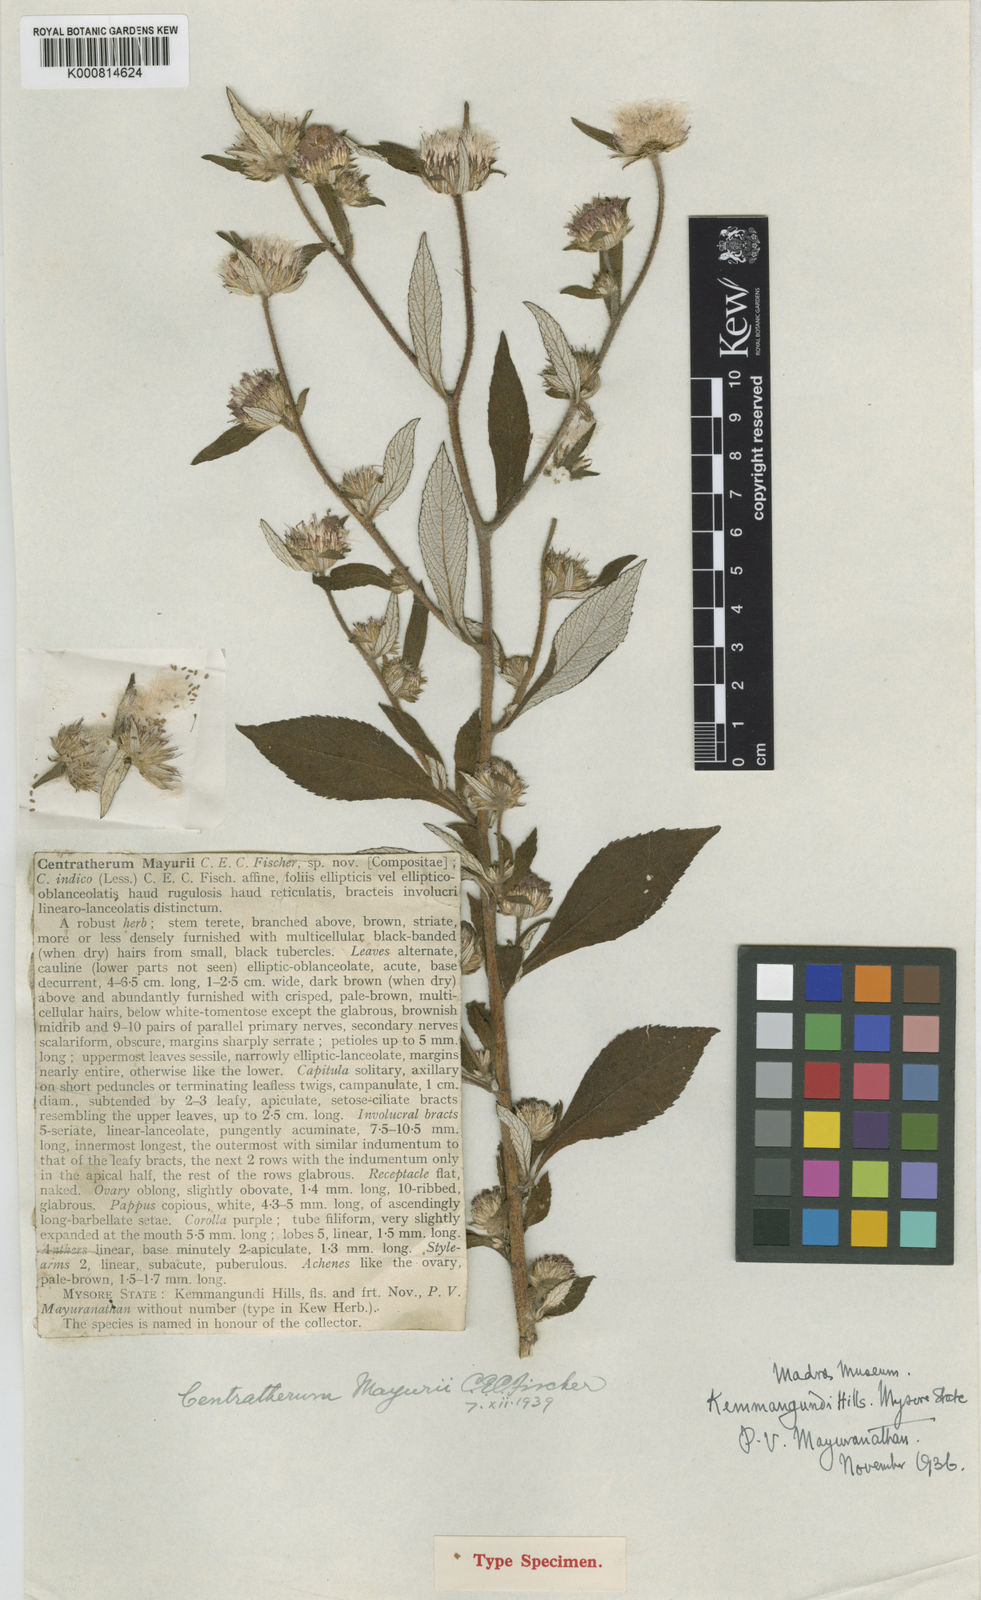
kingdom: Plantae
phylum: Tracheophyta
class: Magnoliopsida
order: Asterales
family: Asteraceae
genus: Phyllocephalum
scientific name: Phyllocephalum indicum
